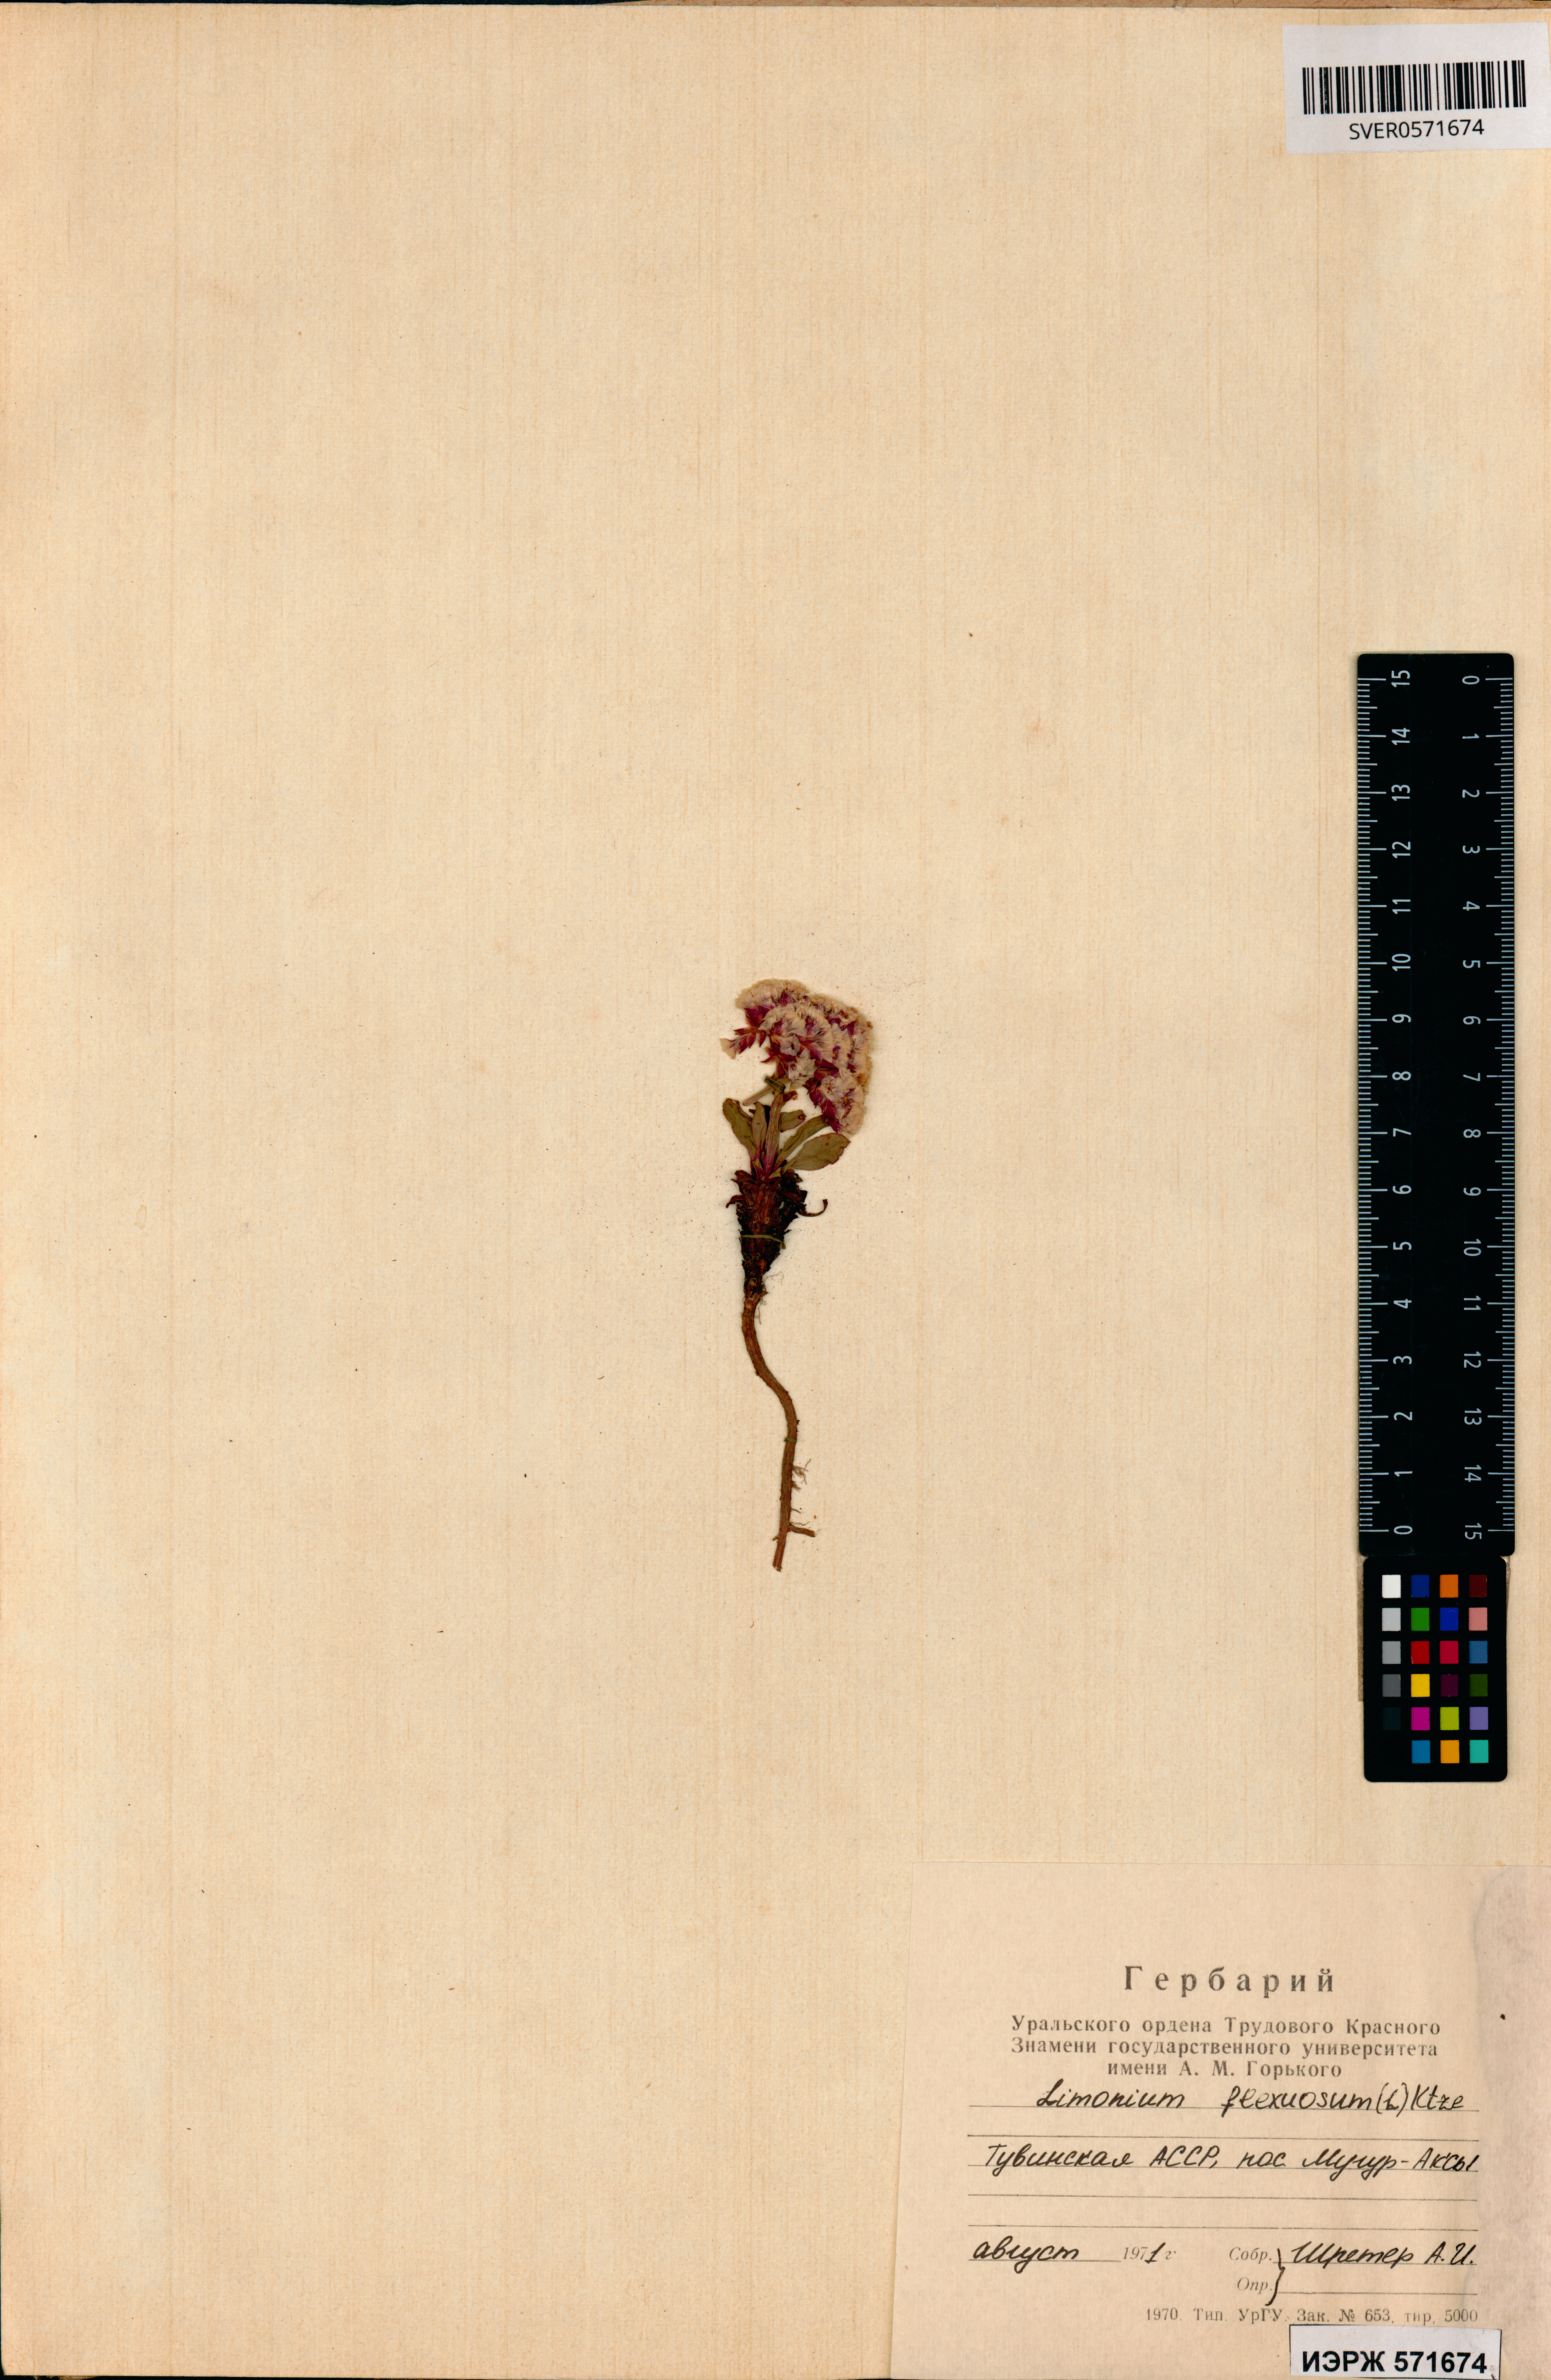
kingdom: Plantae
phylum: Tracheophyta
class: Magnoliopsida
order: Caryophyllales
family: Plumbaginaceae
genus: Limonium
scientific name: Limonium flexuosum
